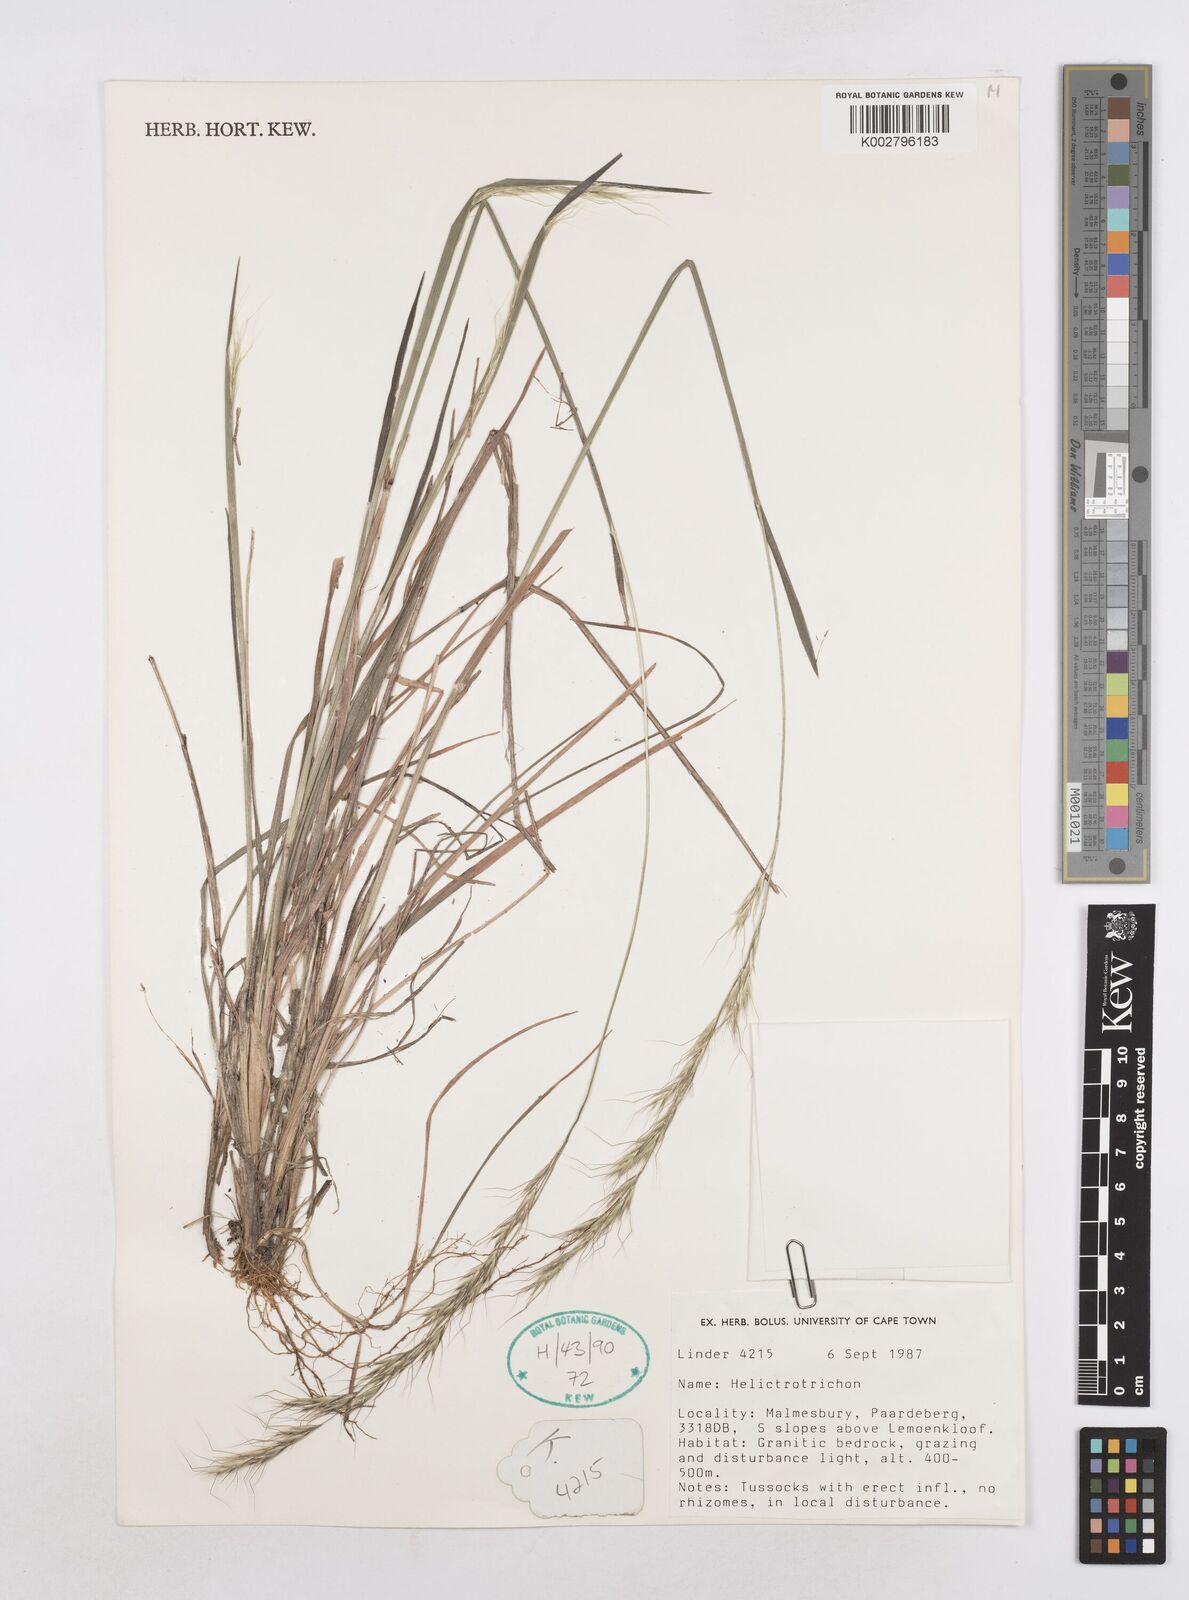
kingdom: Plantae
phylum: Tracheophyta
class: Liliopsida
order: Poales
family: Poaceae
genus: Helictotrichon
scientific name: Helictotrichon
